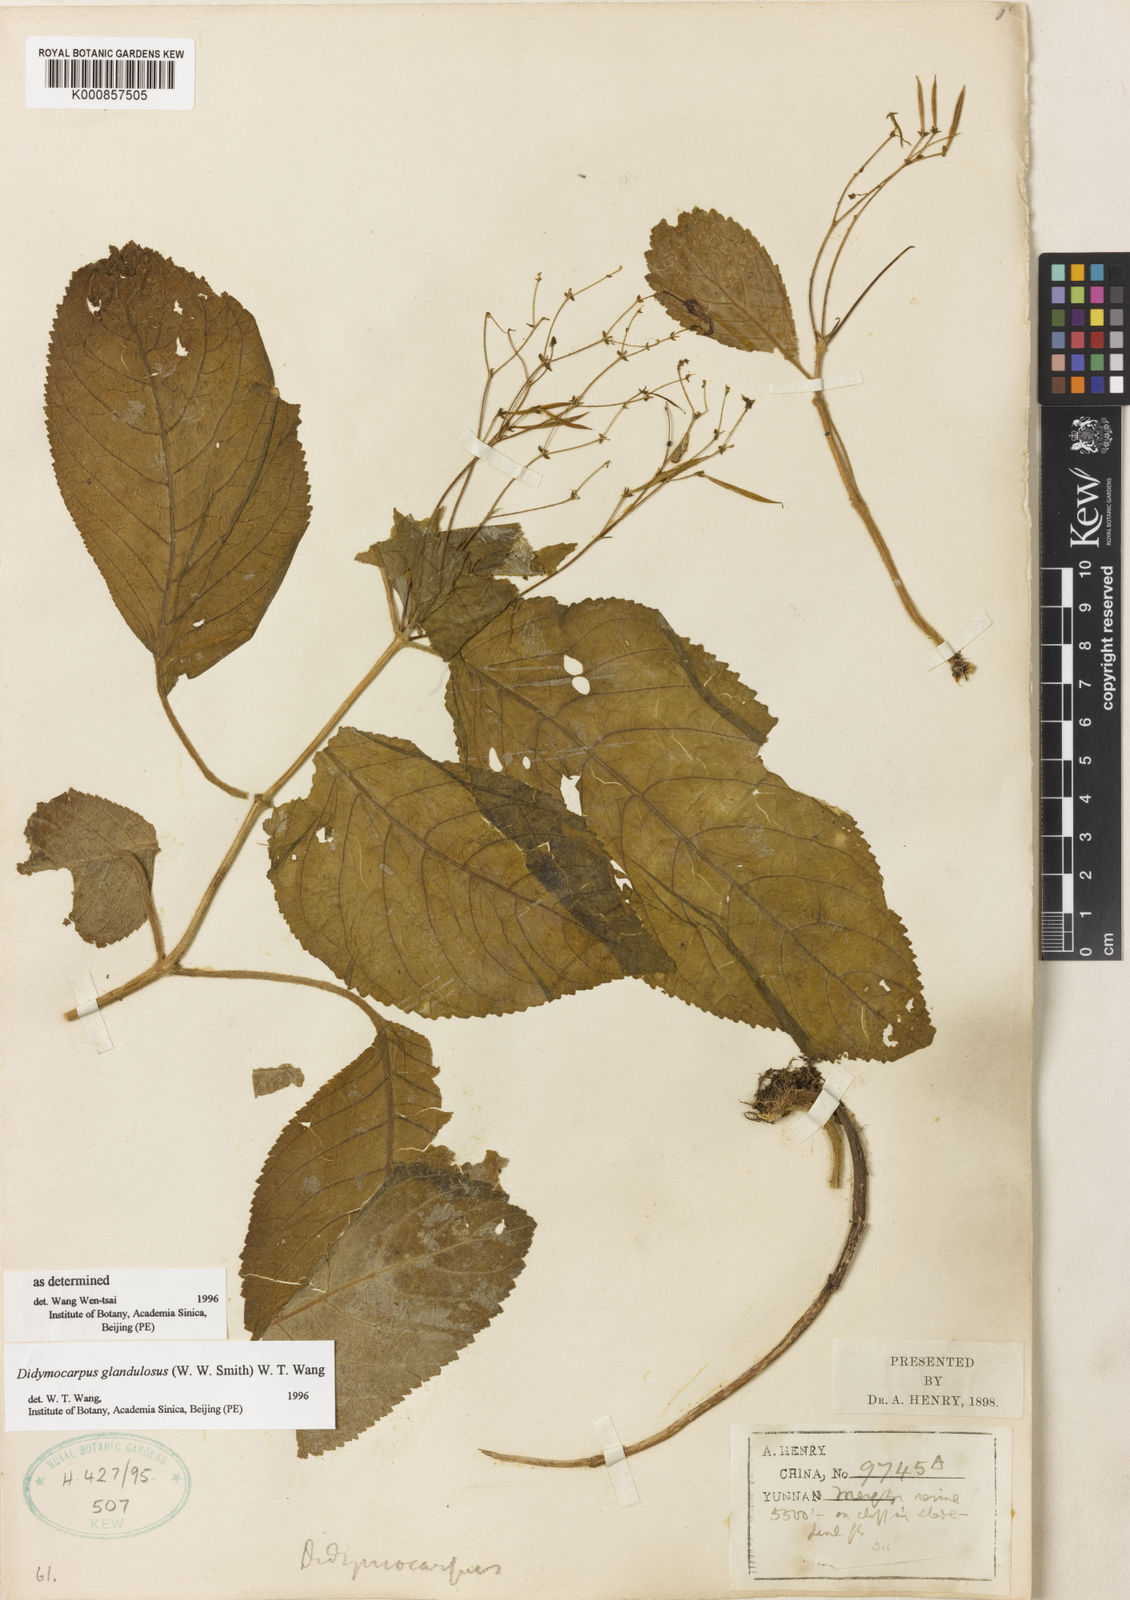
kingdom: Plantae
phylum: Tracheophyta
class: Magnoliopsida
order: Lamiales
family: Gesneriaceae
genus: Didymocarpus
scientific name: Didymocarpus glandulosus
